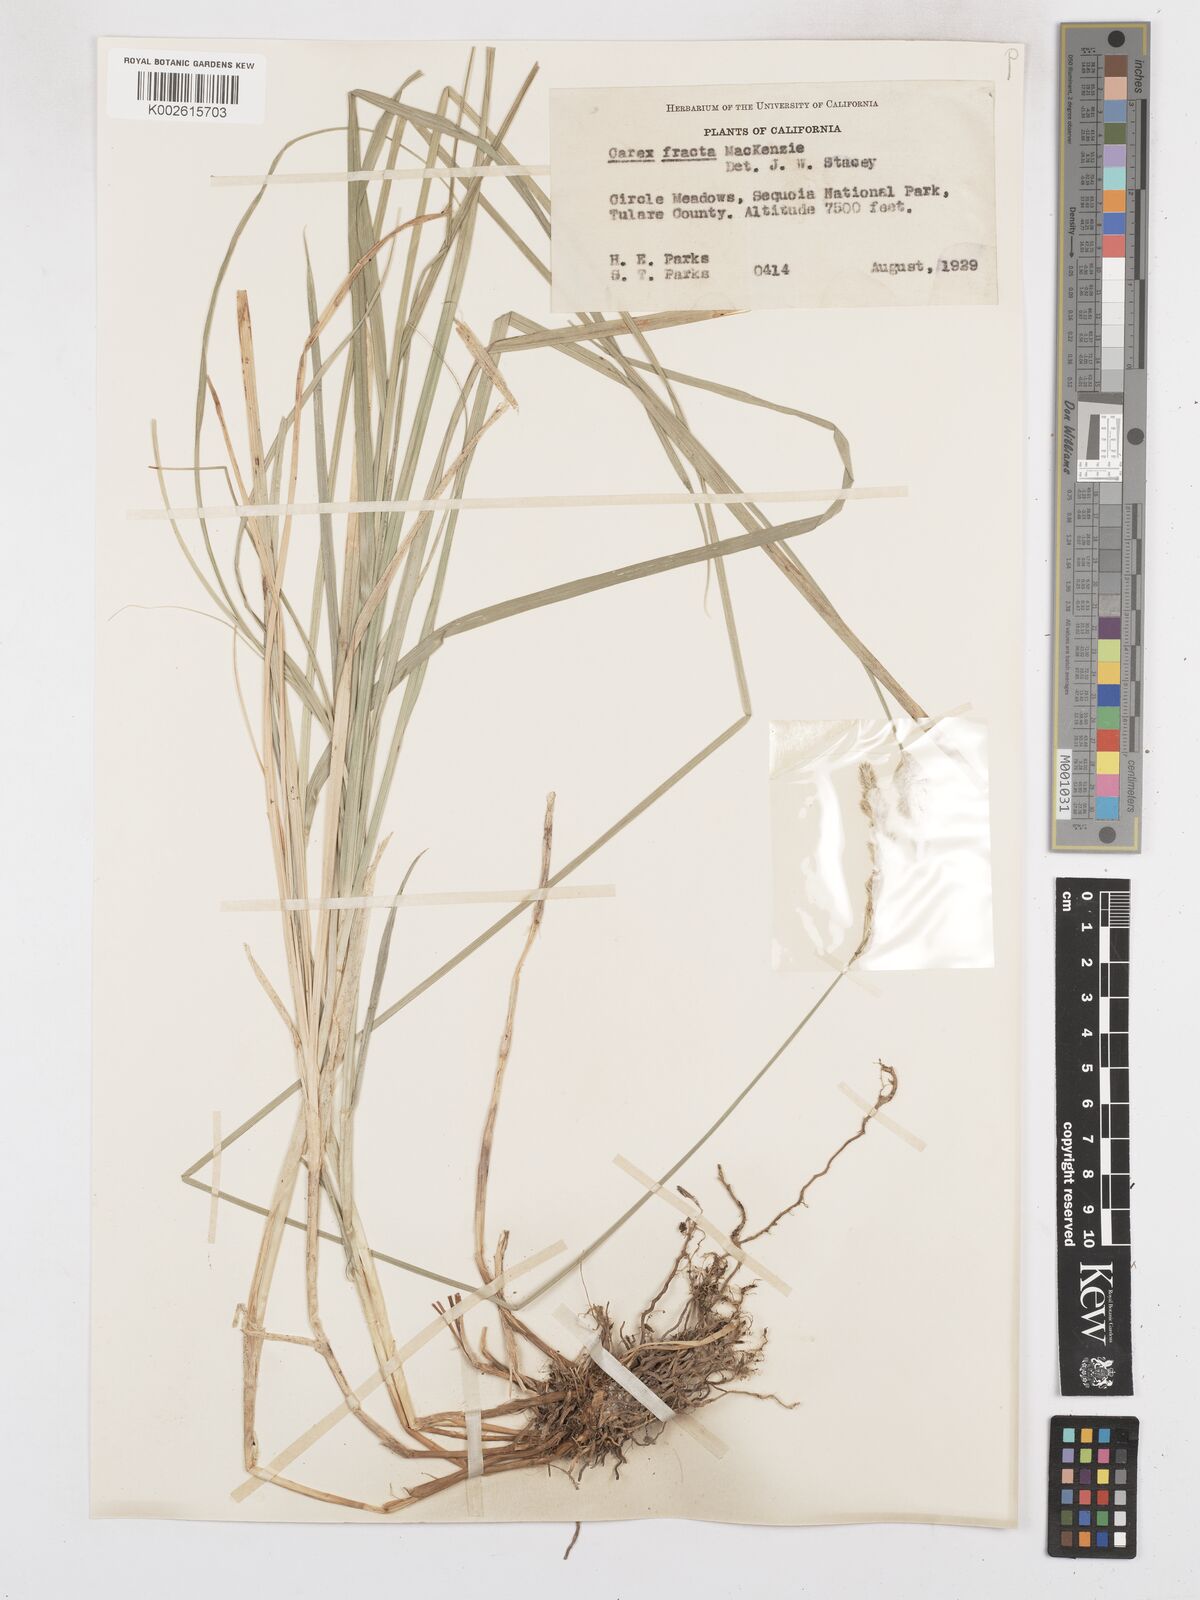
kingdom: Plantae
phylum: Tracheophyta
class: Liliopsida
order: Poales
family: Cyperaceae
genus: Carex
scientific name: Carex fracta
